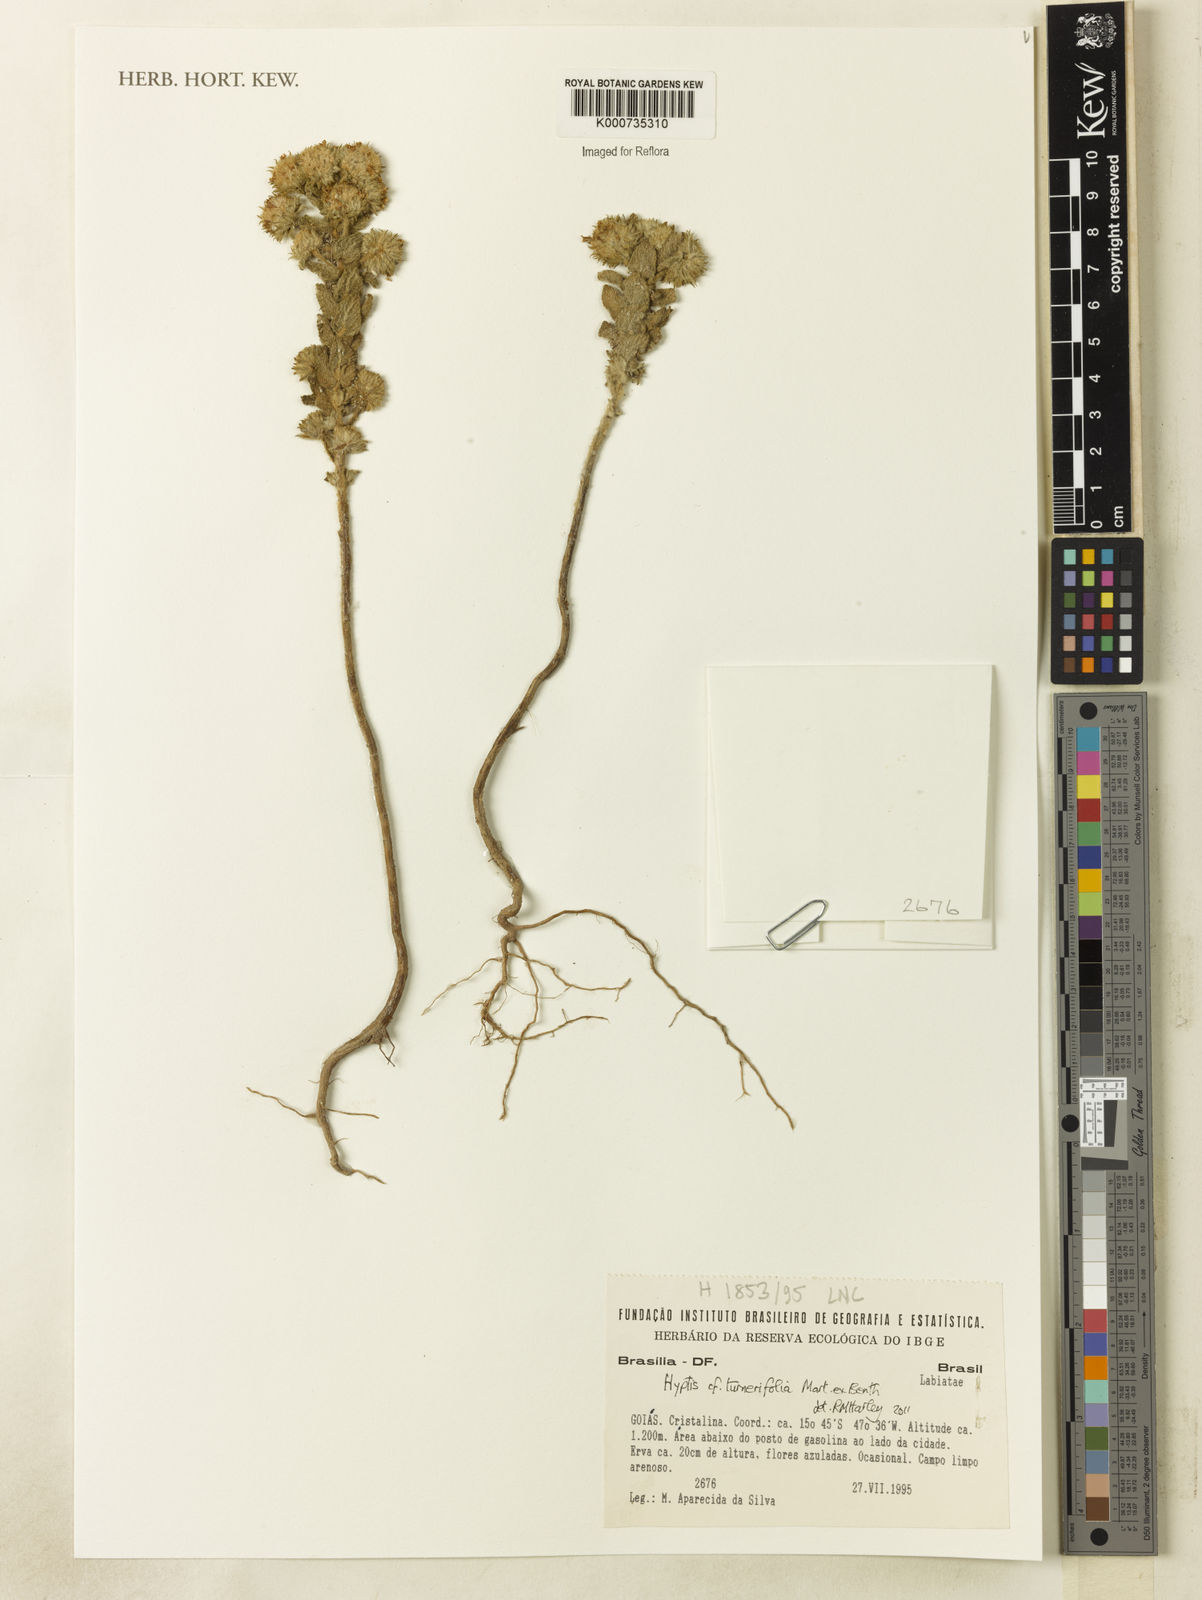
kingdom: Plantae
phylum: Tracheophyta
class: Magnoliopsida
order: Lamiales
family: Lamiaceae
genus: Hyptis
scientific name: Hyptis turnerifolia
